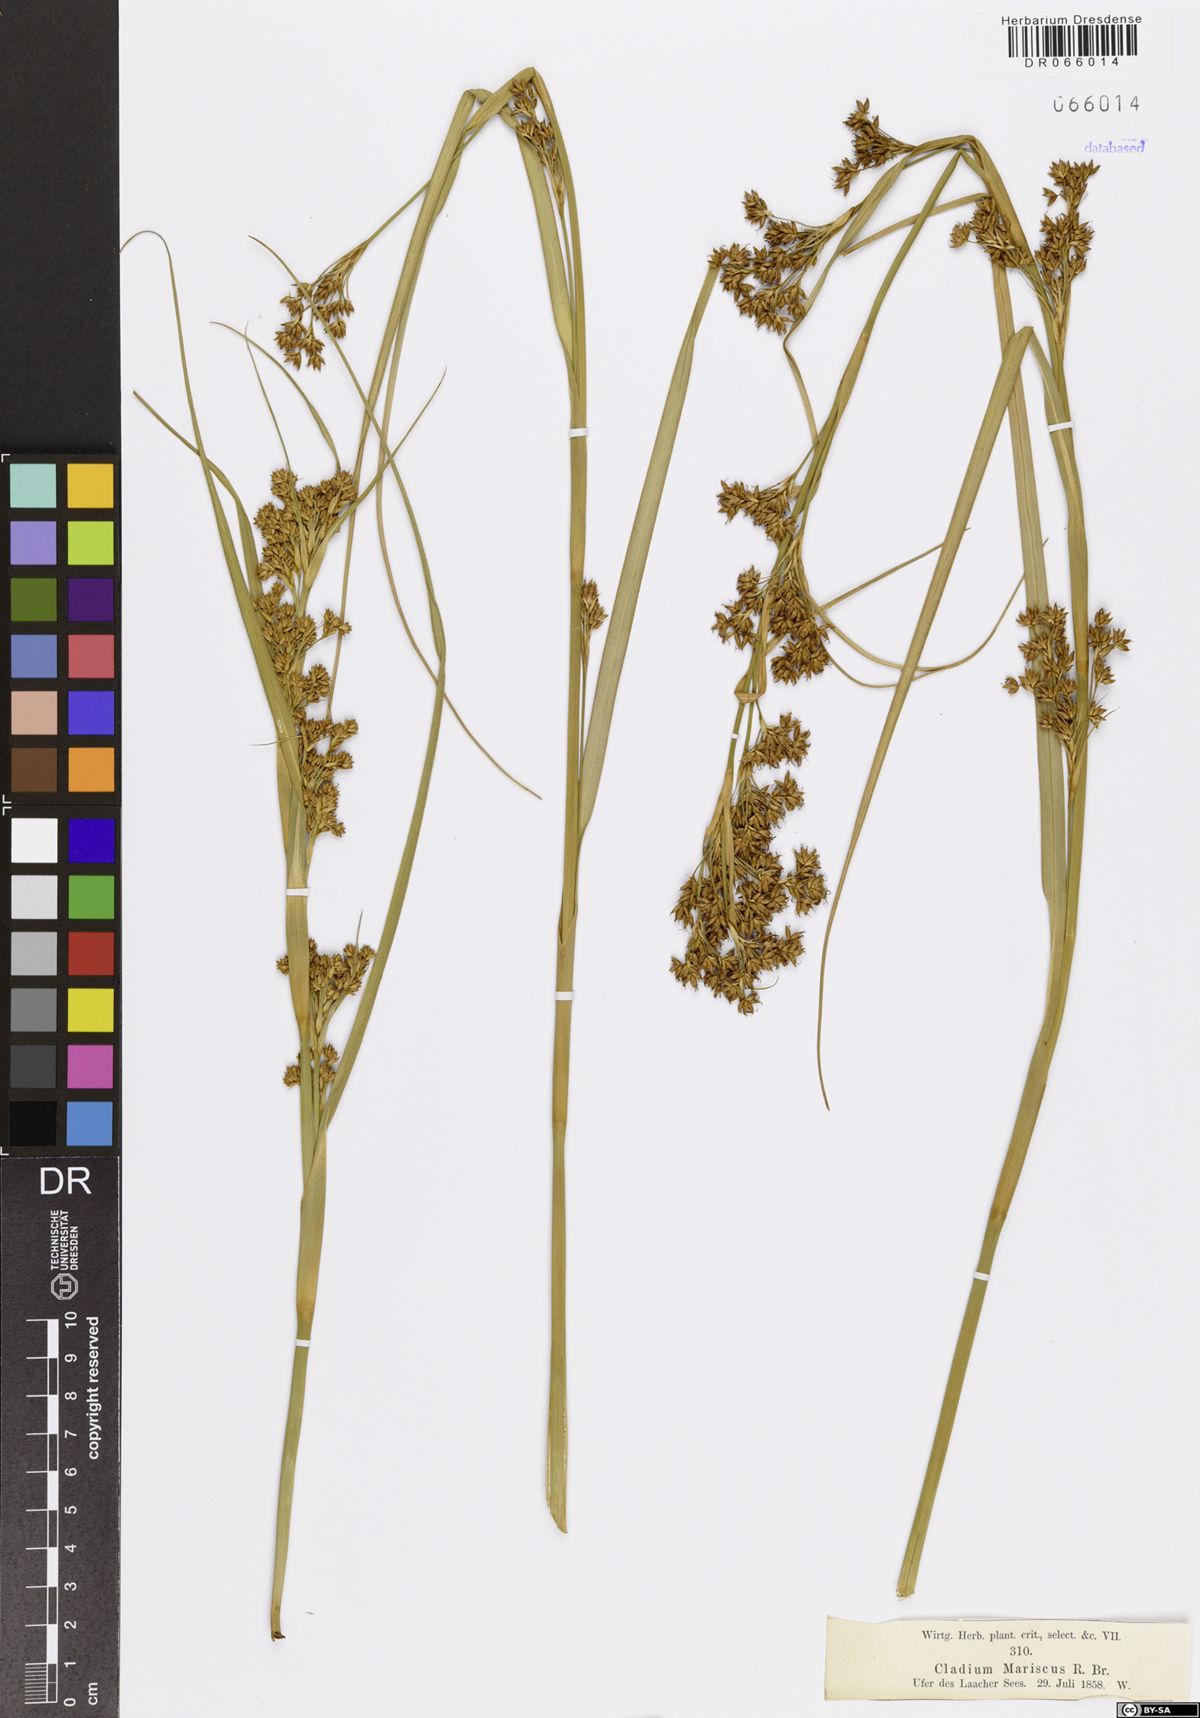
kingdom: Plantae
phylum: Tracheophyta
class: Liliopsida
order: Poales
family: Cyperaceae
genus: Cladium
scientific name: Cladium mariscus
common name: Great fen-sedge
